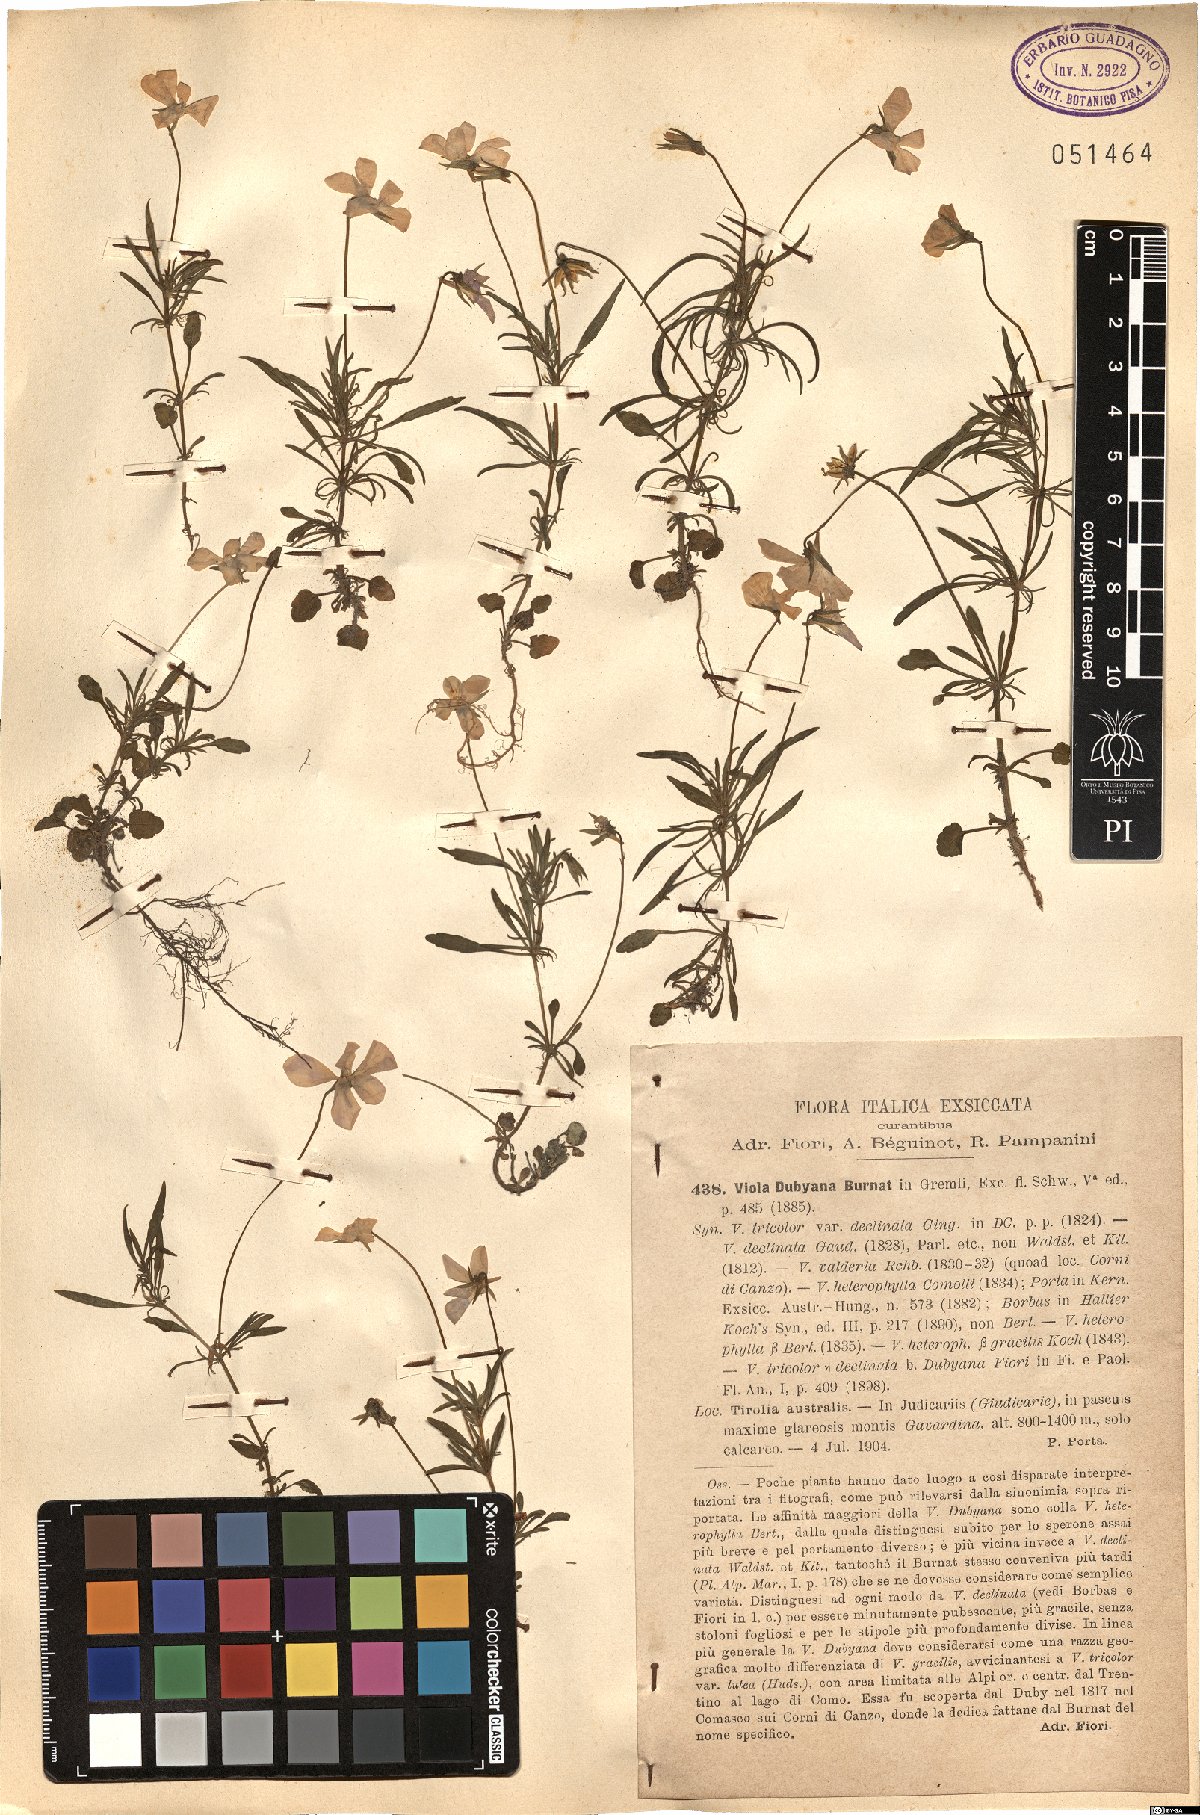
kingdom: Plantae
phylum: Tracheophyta
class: Magnoliopsida
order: Malpighiales
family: Violaceae
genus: Viola
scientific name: Viola dubyana
